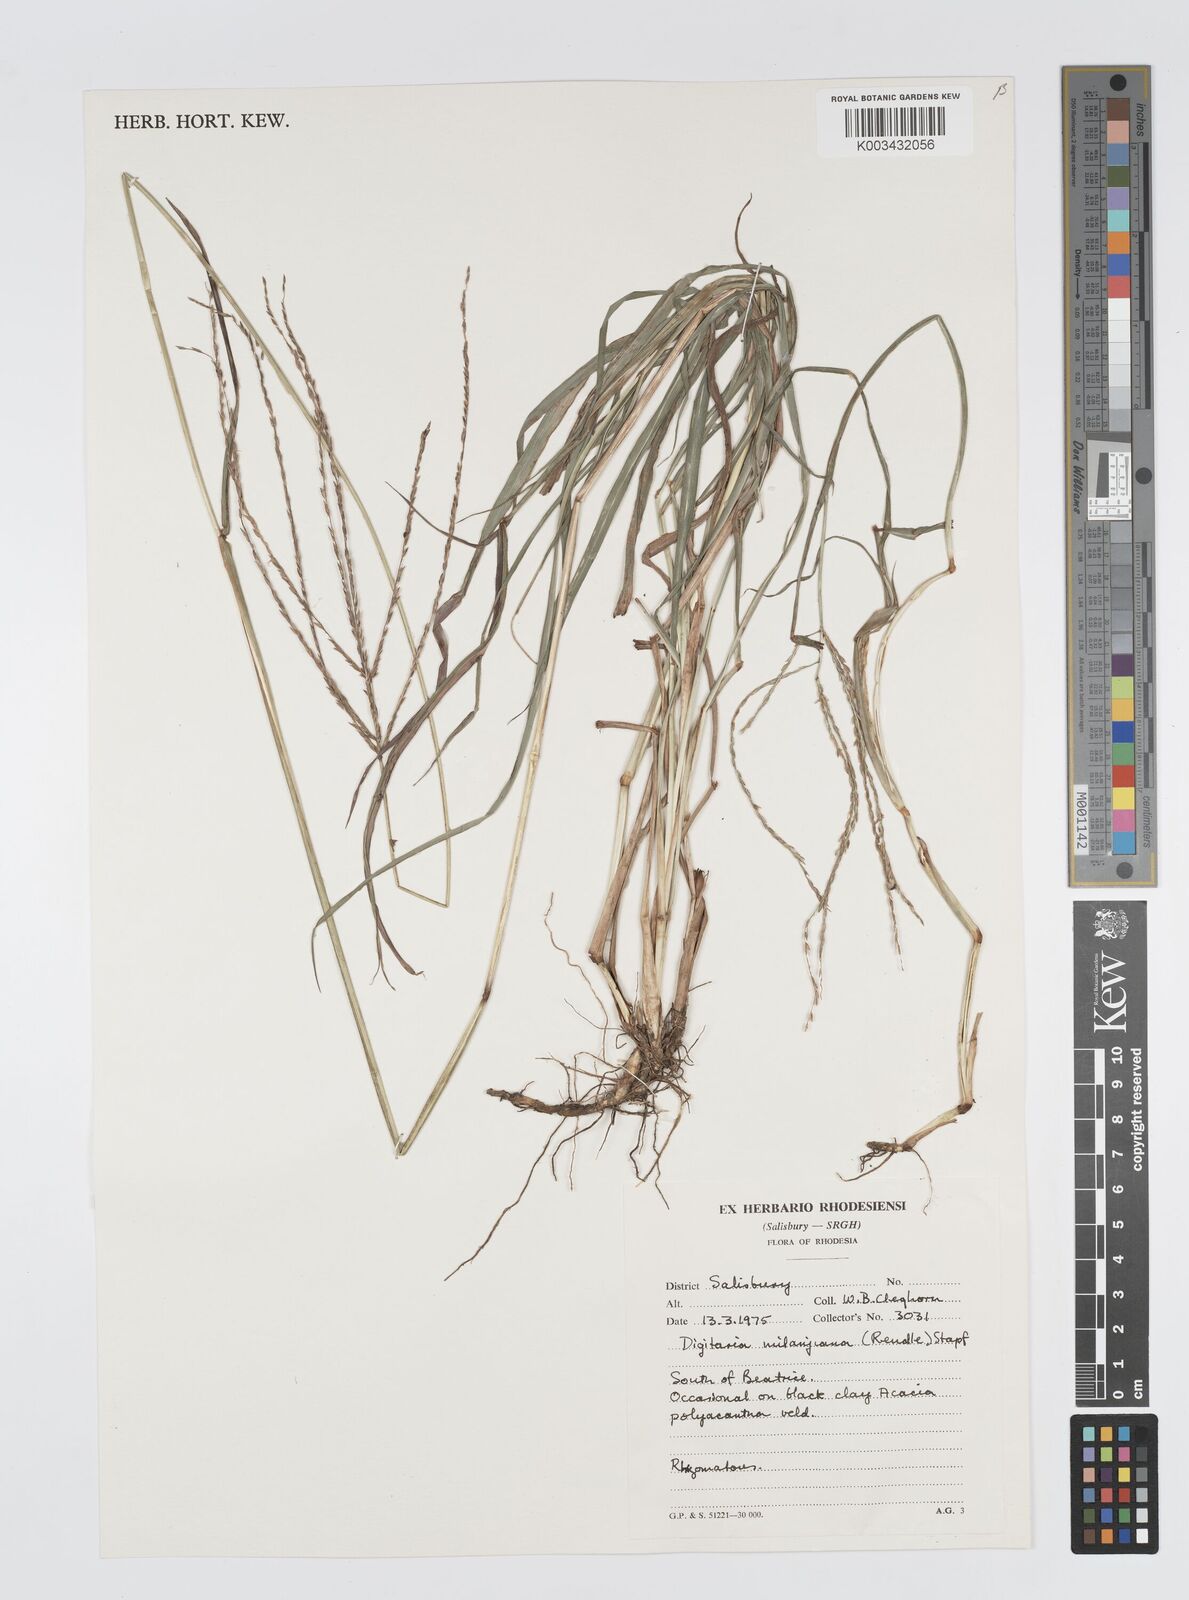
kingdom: Plantae
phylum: Tracheophyta
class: Liliopsida
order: Poales
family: Poaceae
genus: Digitaria
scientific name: Digitaria milanjiana
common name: Madagascar crabgrass
